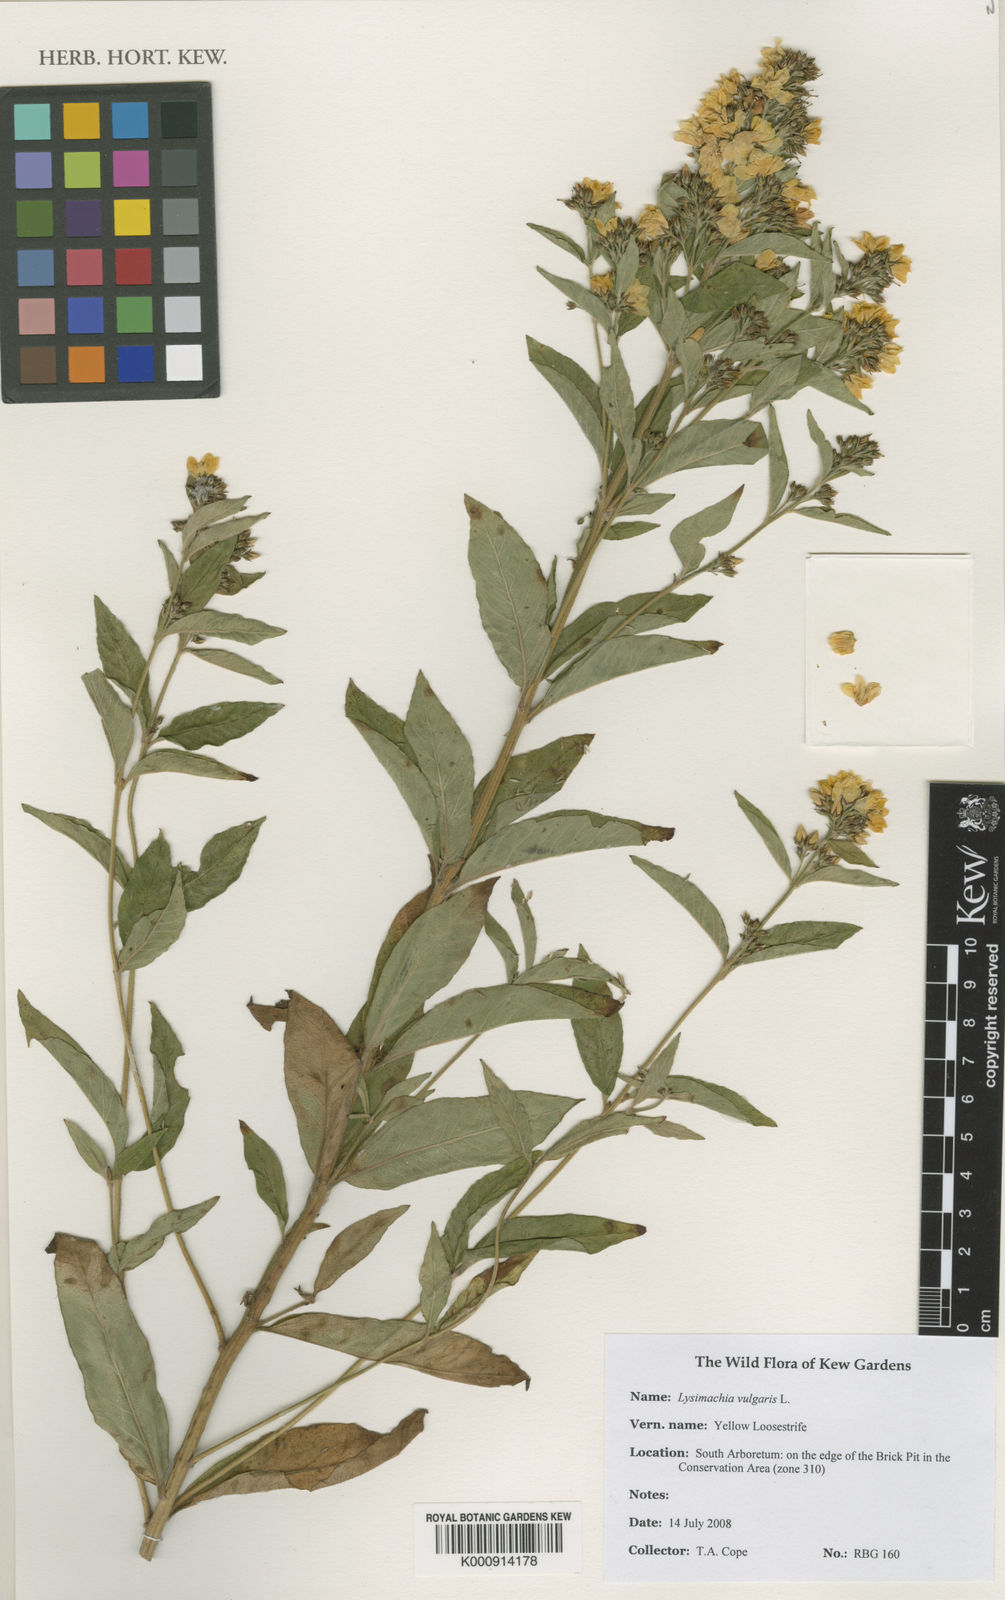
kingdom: Plantae
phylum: Tracheophyta
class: Magnoliopsida
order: Ericales
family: Primulaceae
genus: Lysimachia
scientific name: Lysimachia vulgaris
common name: Yellow loosestrife
